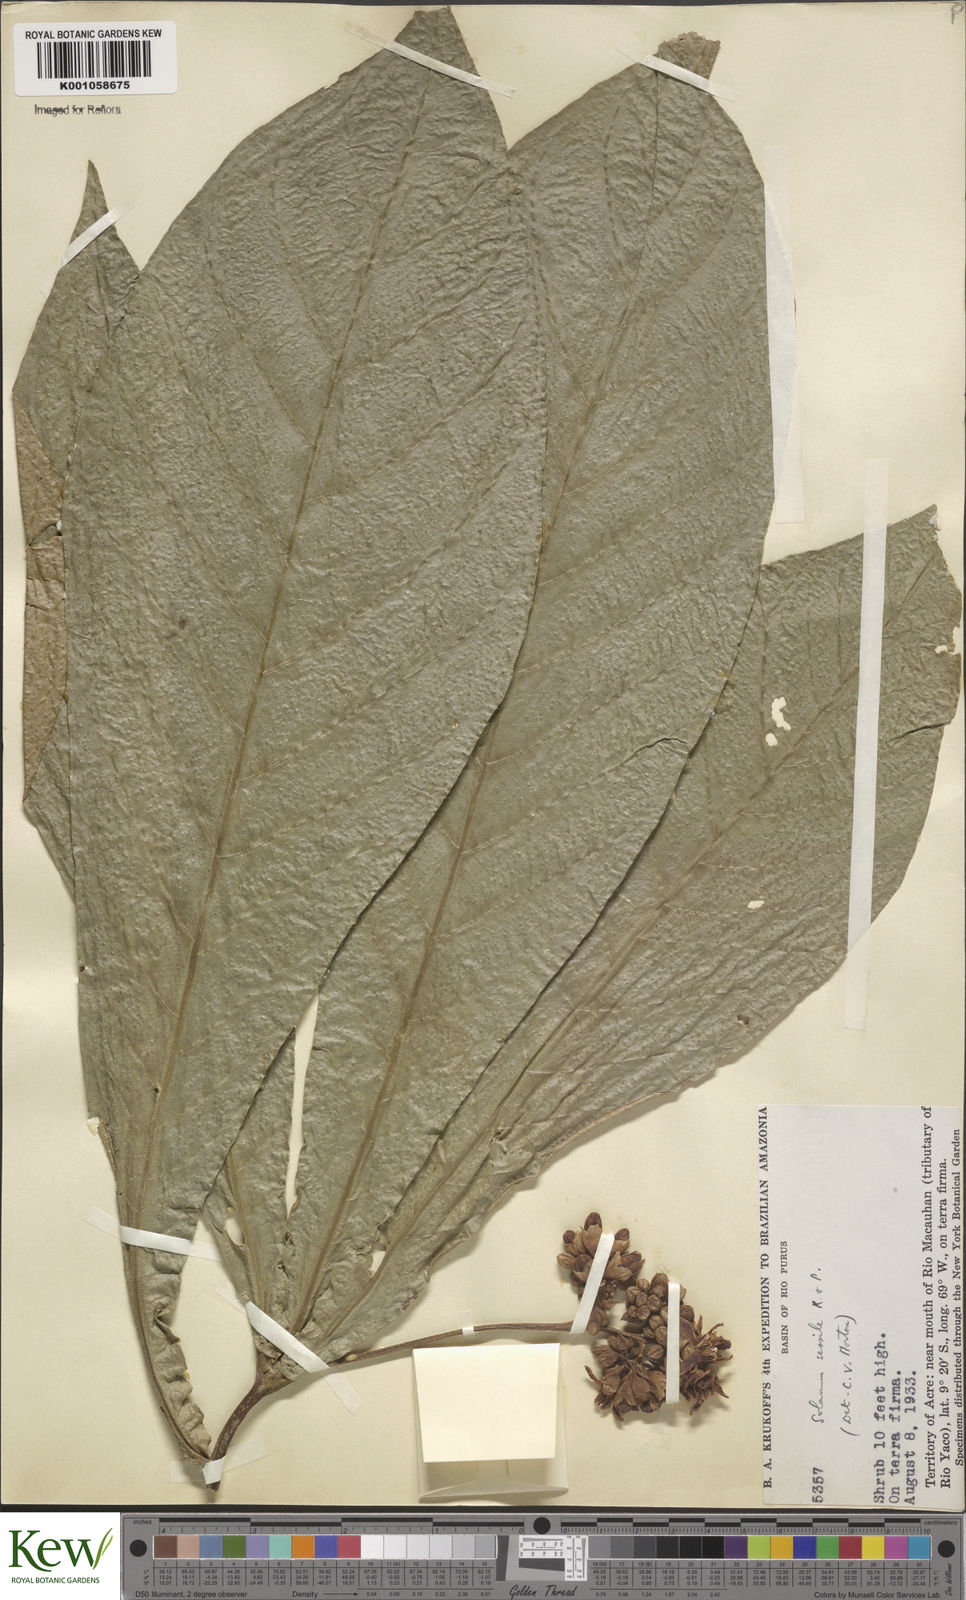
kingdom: Plantae
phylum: Tracheophyta
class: Magnoliopsida
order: Solanales
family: Solanaceae
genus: Solanum
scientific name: Solanum sessile
